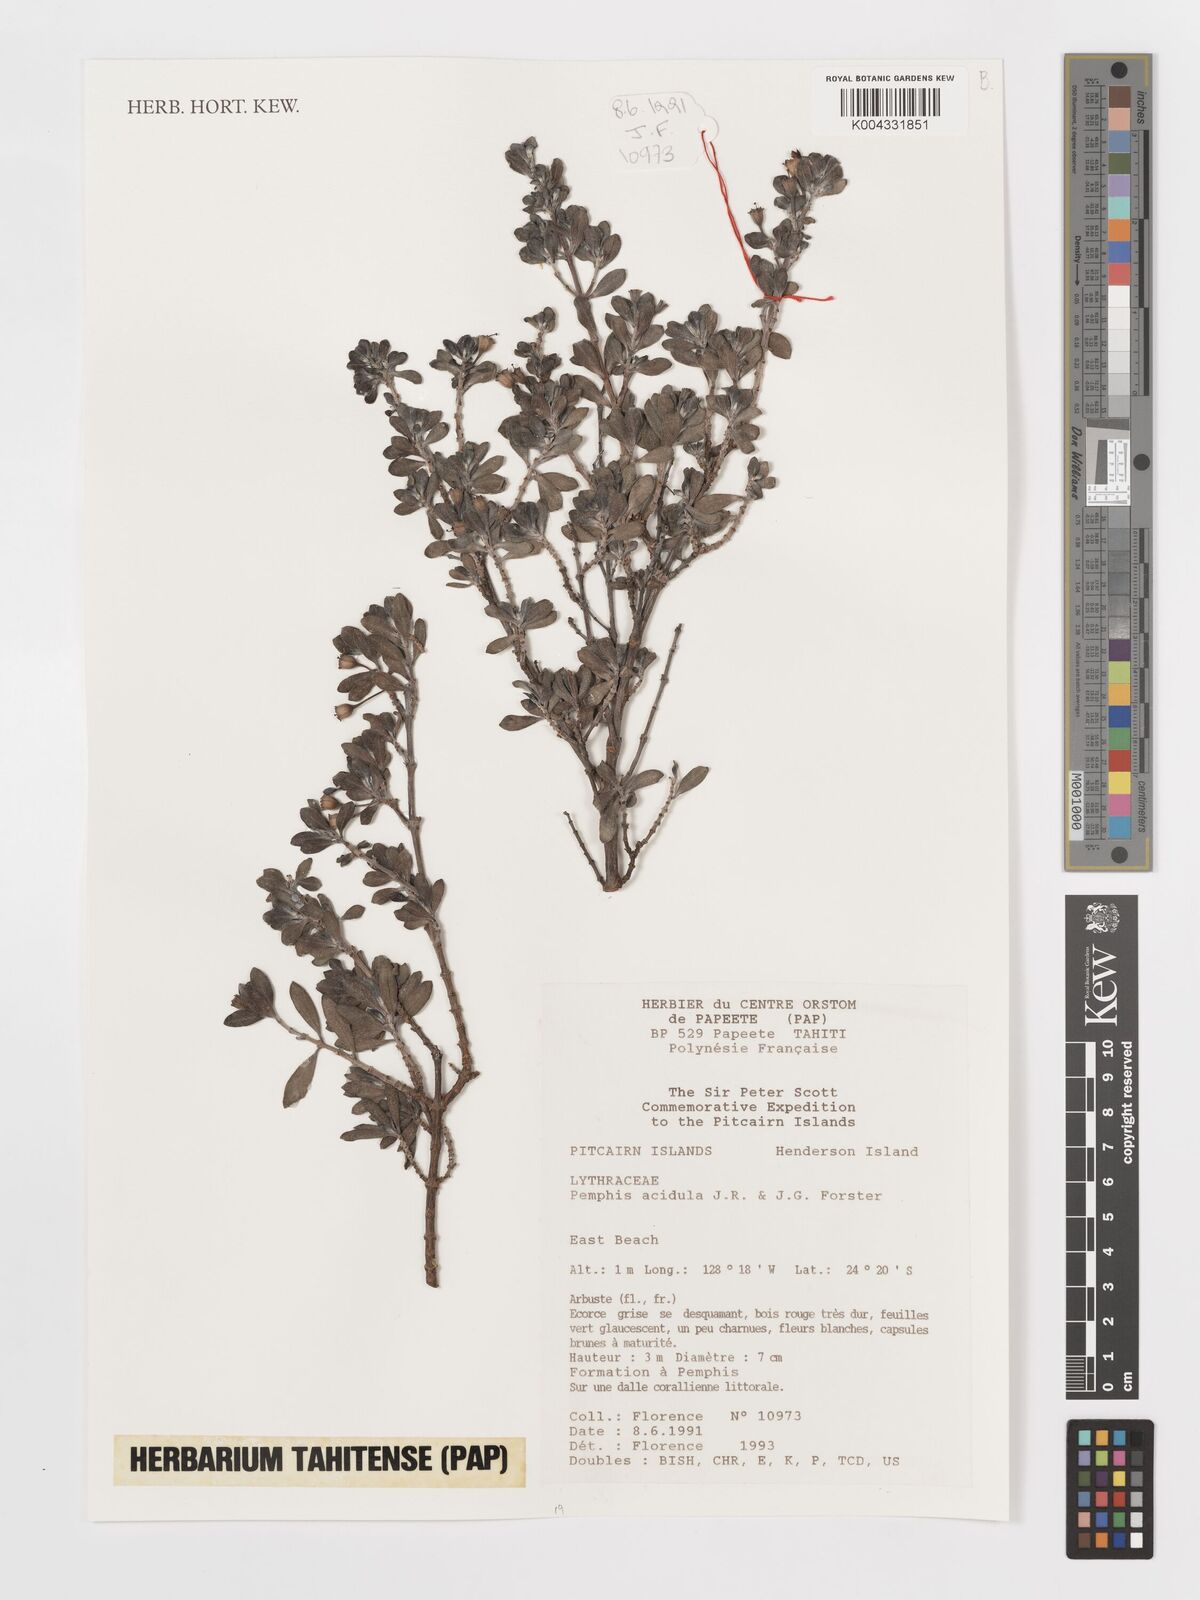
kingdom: Plantae
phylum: Tracheophyta
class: Magnoliopsida
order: Myrtales
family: Lythraceae
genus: Pemphis
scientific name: Pemphis acidula
